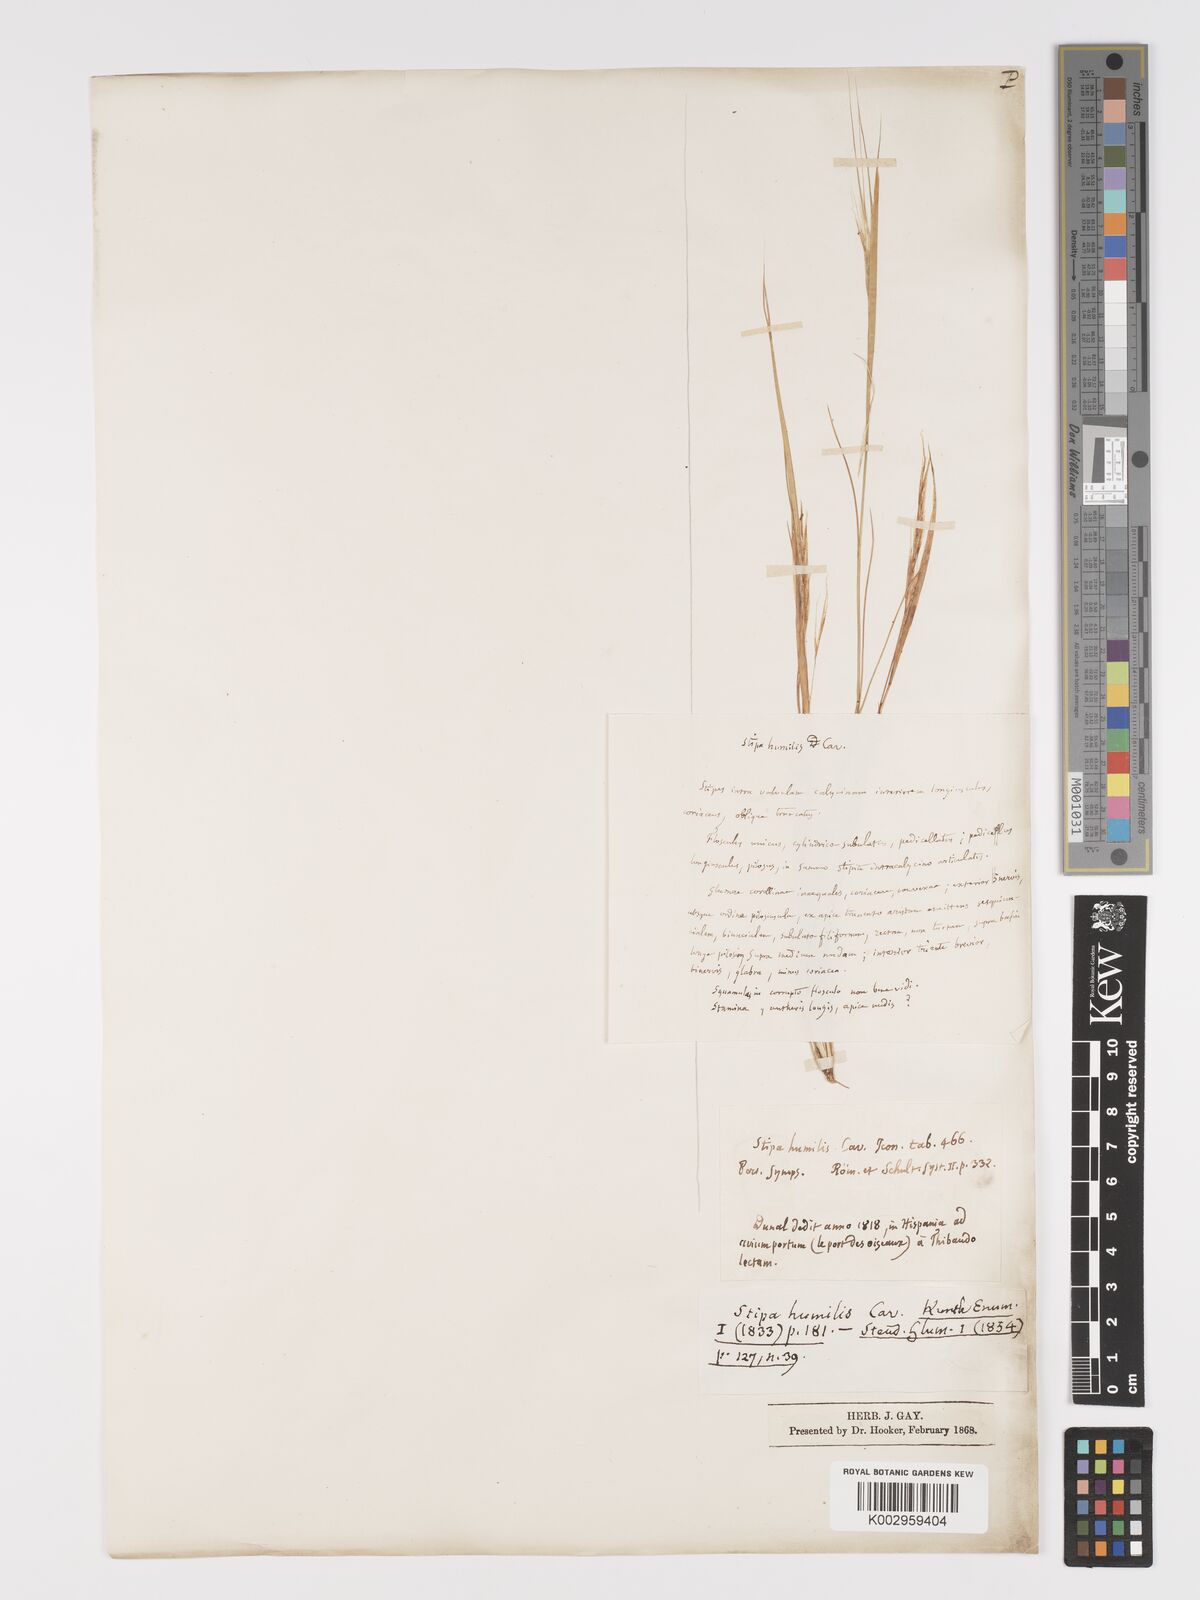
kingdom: Plantae
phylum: Tracheophyta
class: Liliopsida
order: Poales
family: Poaceae
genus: Stipellula
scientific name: Stipellula capensis
